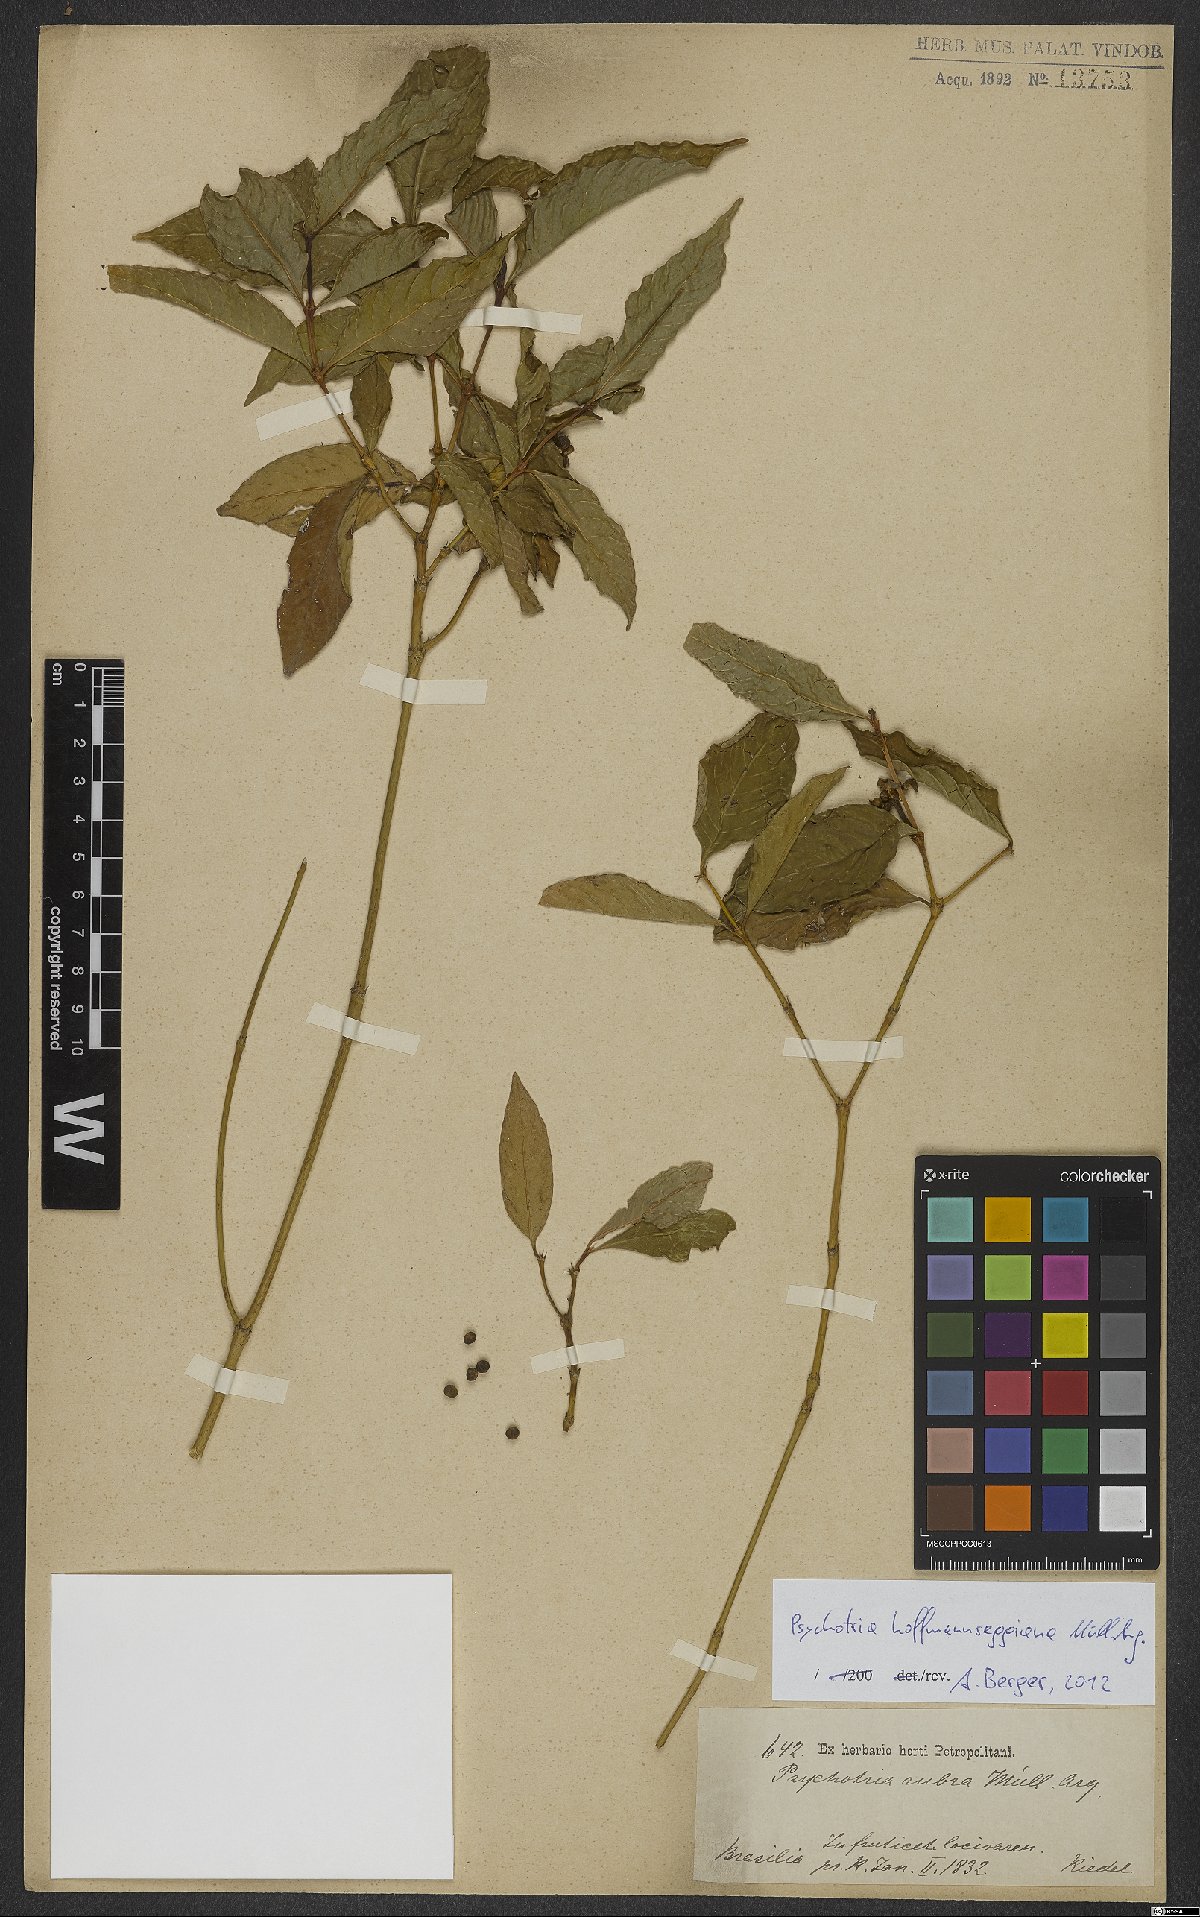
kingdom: Plantae
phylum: Tracheophyta
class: Magnoliopsida
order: Gentianales
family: Rubiaceae
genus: Palicourea
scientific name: Palicourea hoffmannseggiana
